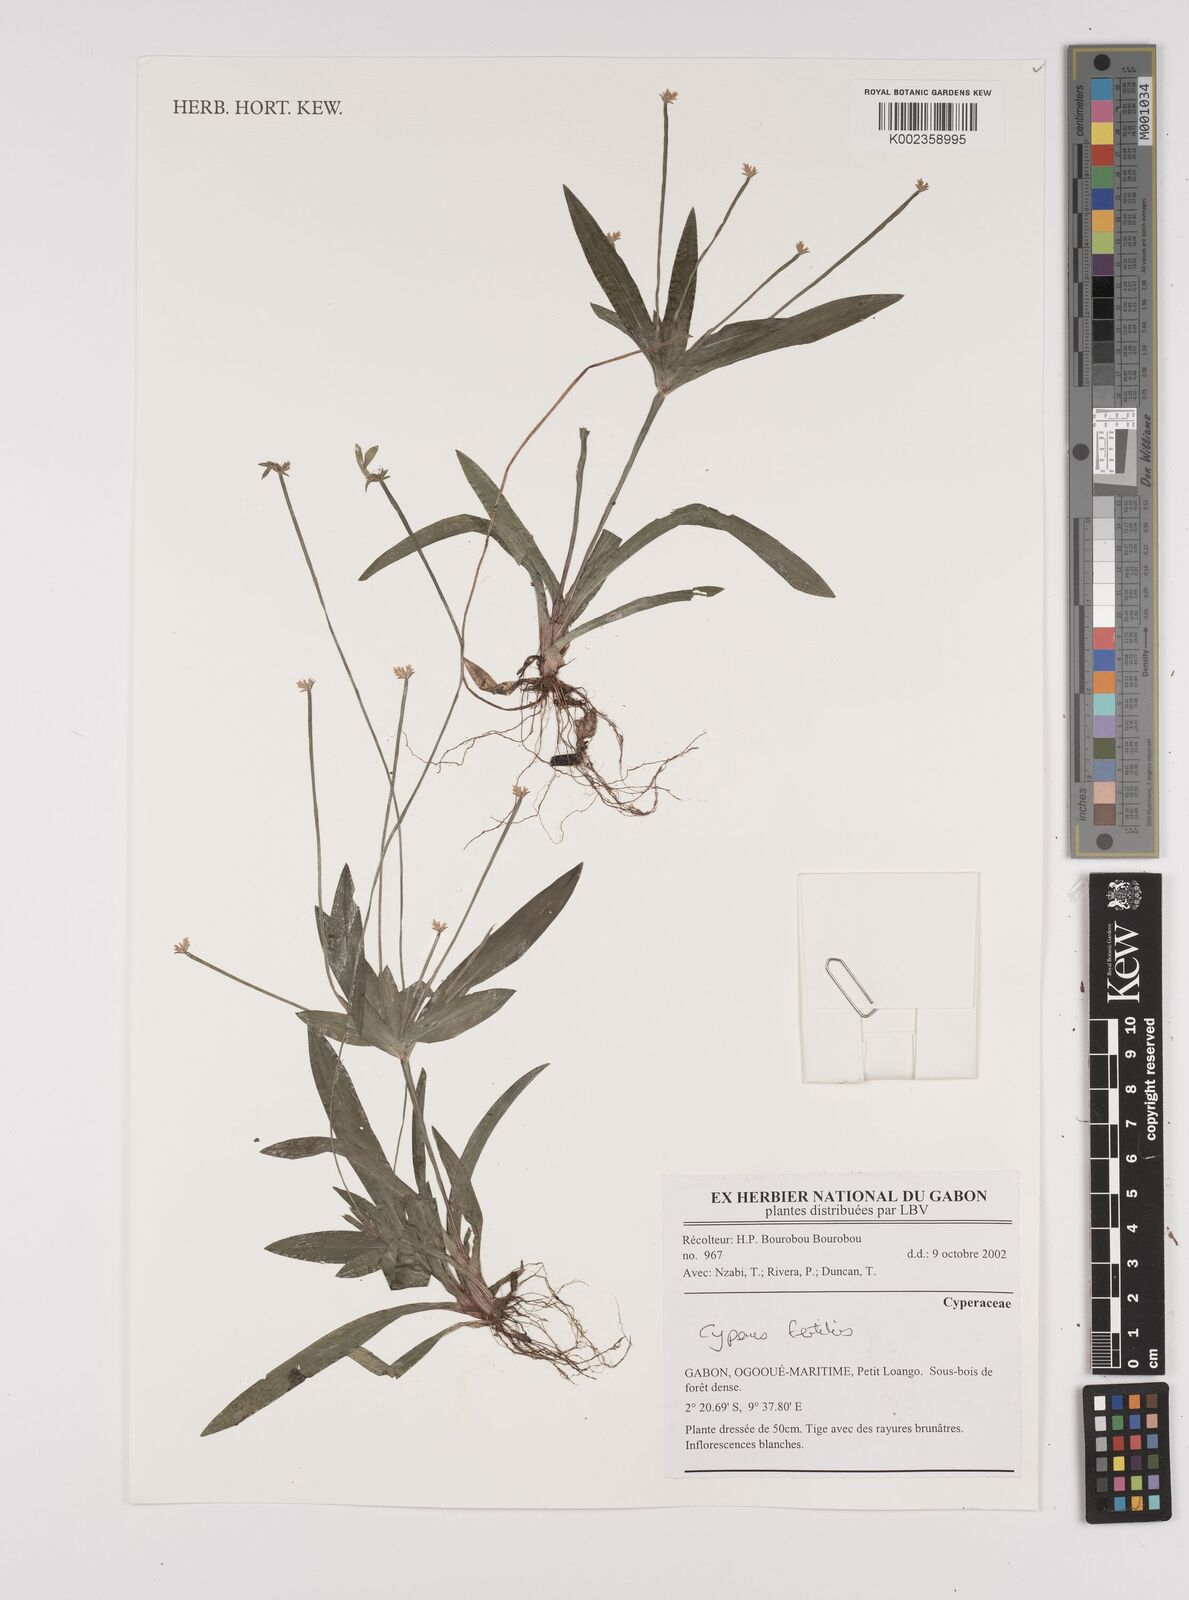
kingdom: Plantae
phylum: Tracheophyta
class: Liliopsida
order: Poales
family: Cyperaceae
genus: Cyperus
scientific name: Cyperus fertilis
